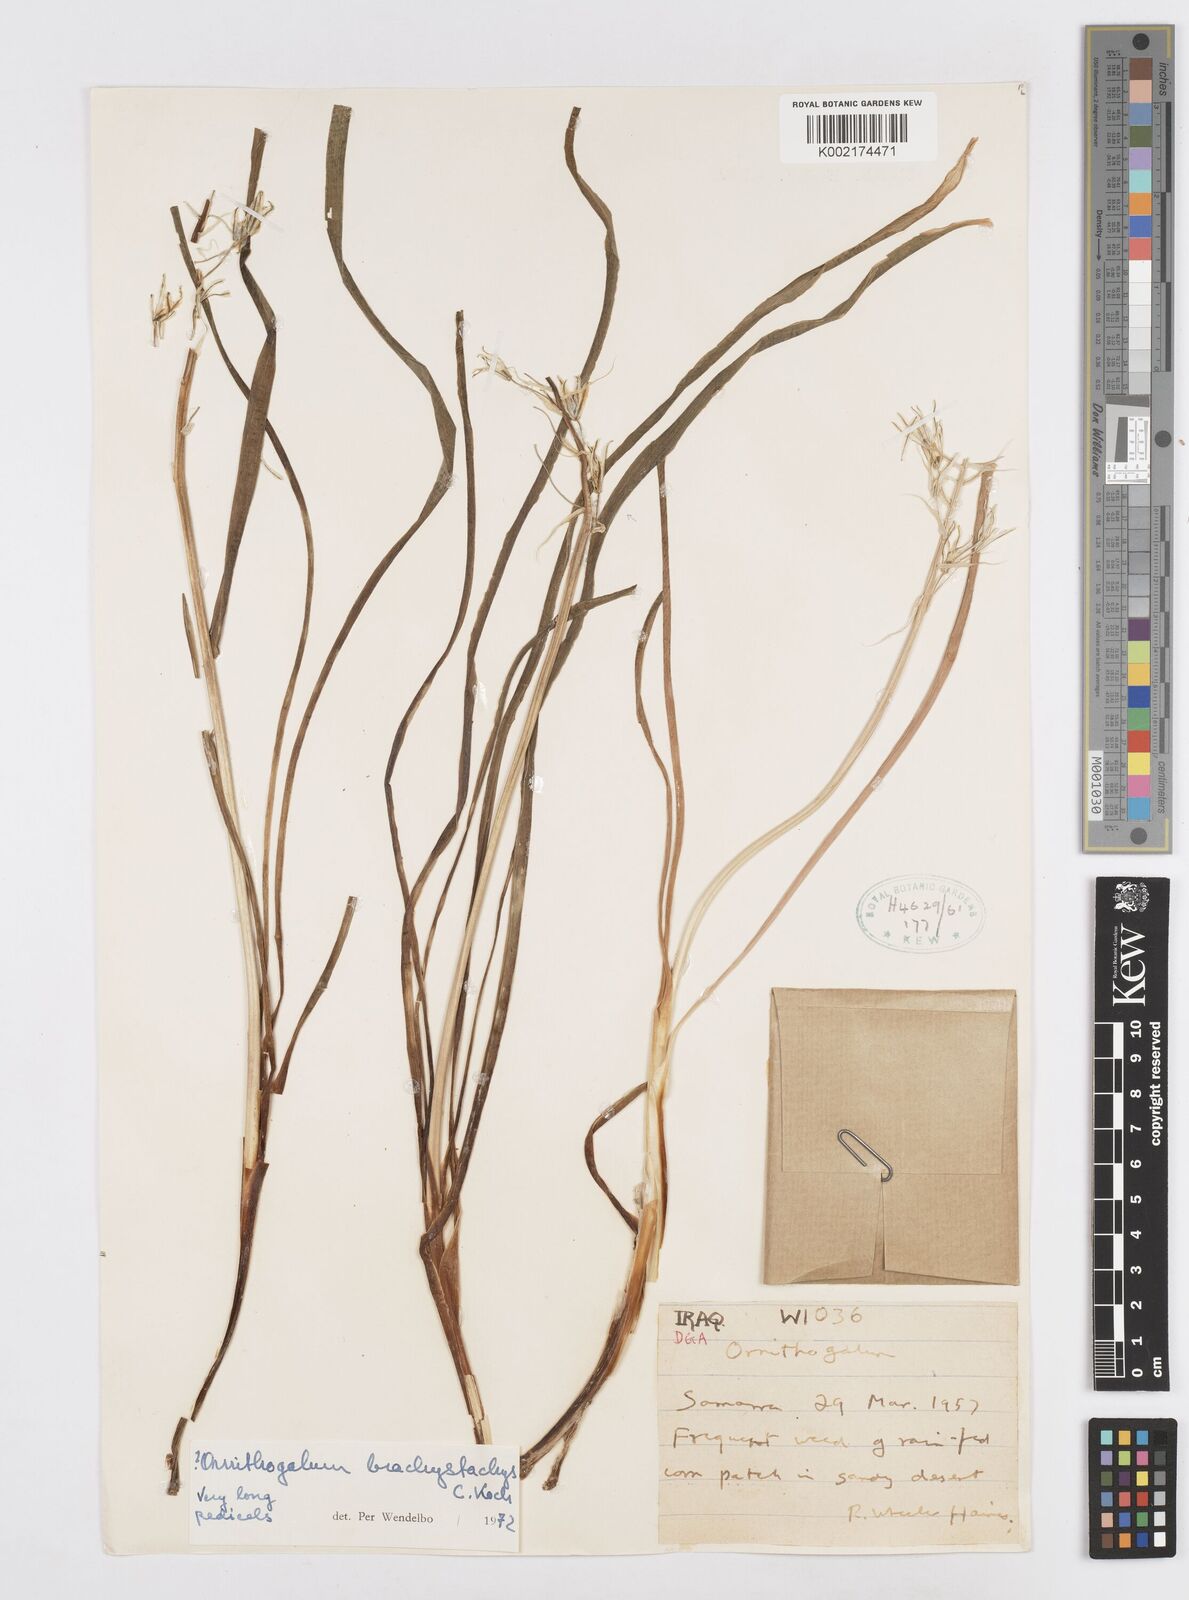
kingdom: Plantae
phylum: Tracheophyta
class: Liliopsida
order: Asparagales
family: Asparagaceae
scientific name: Asparagaceae
